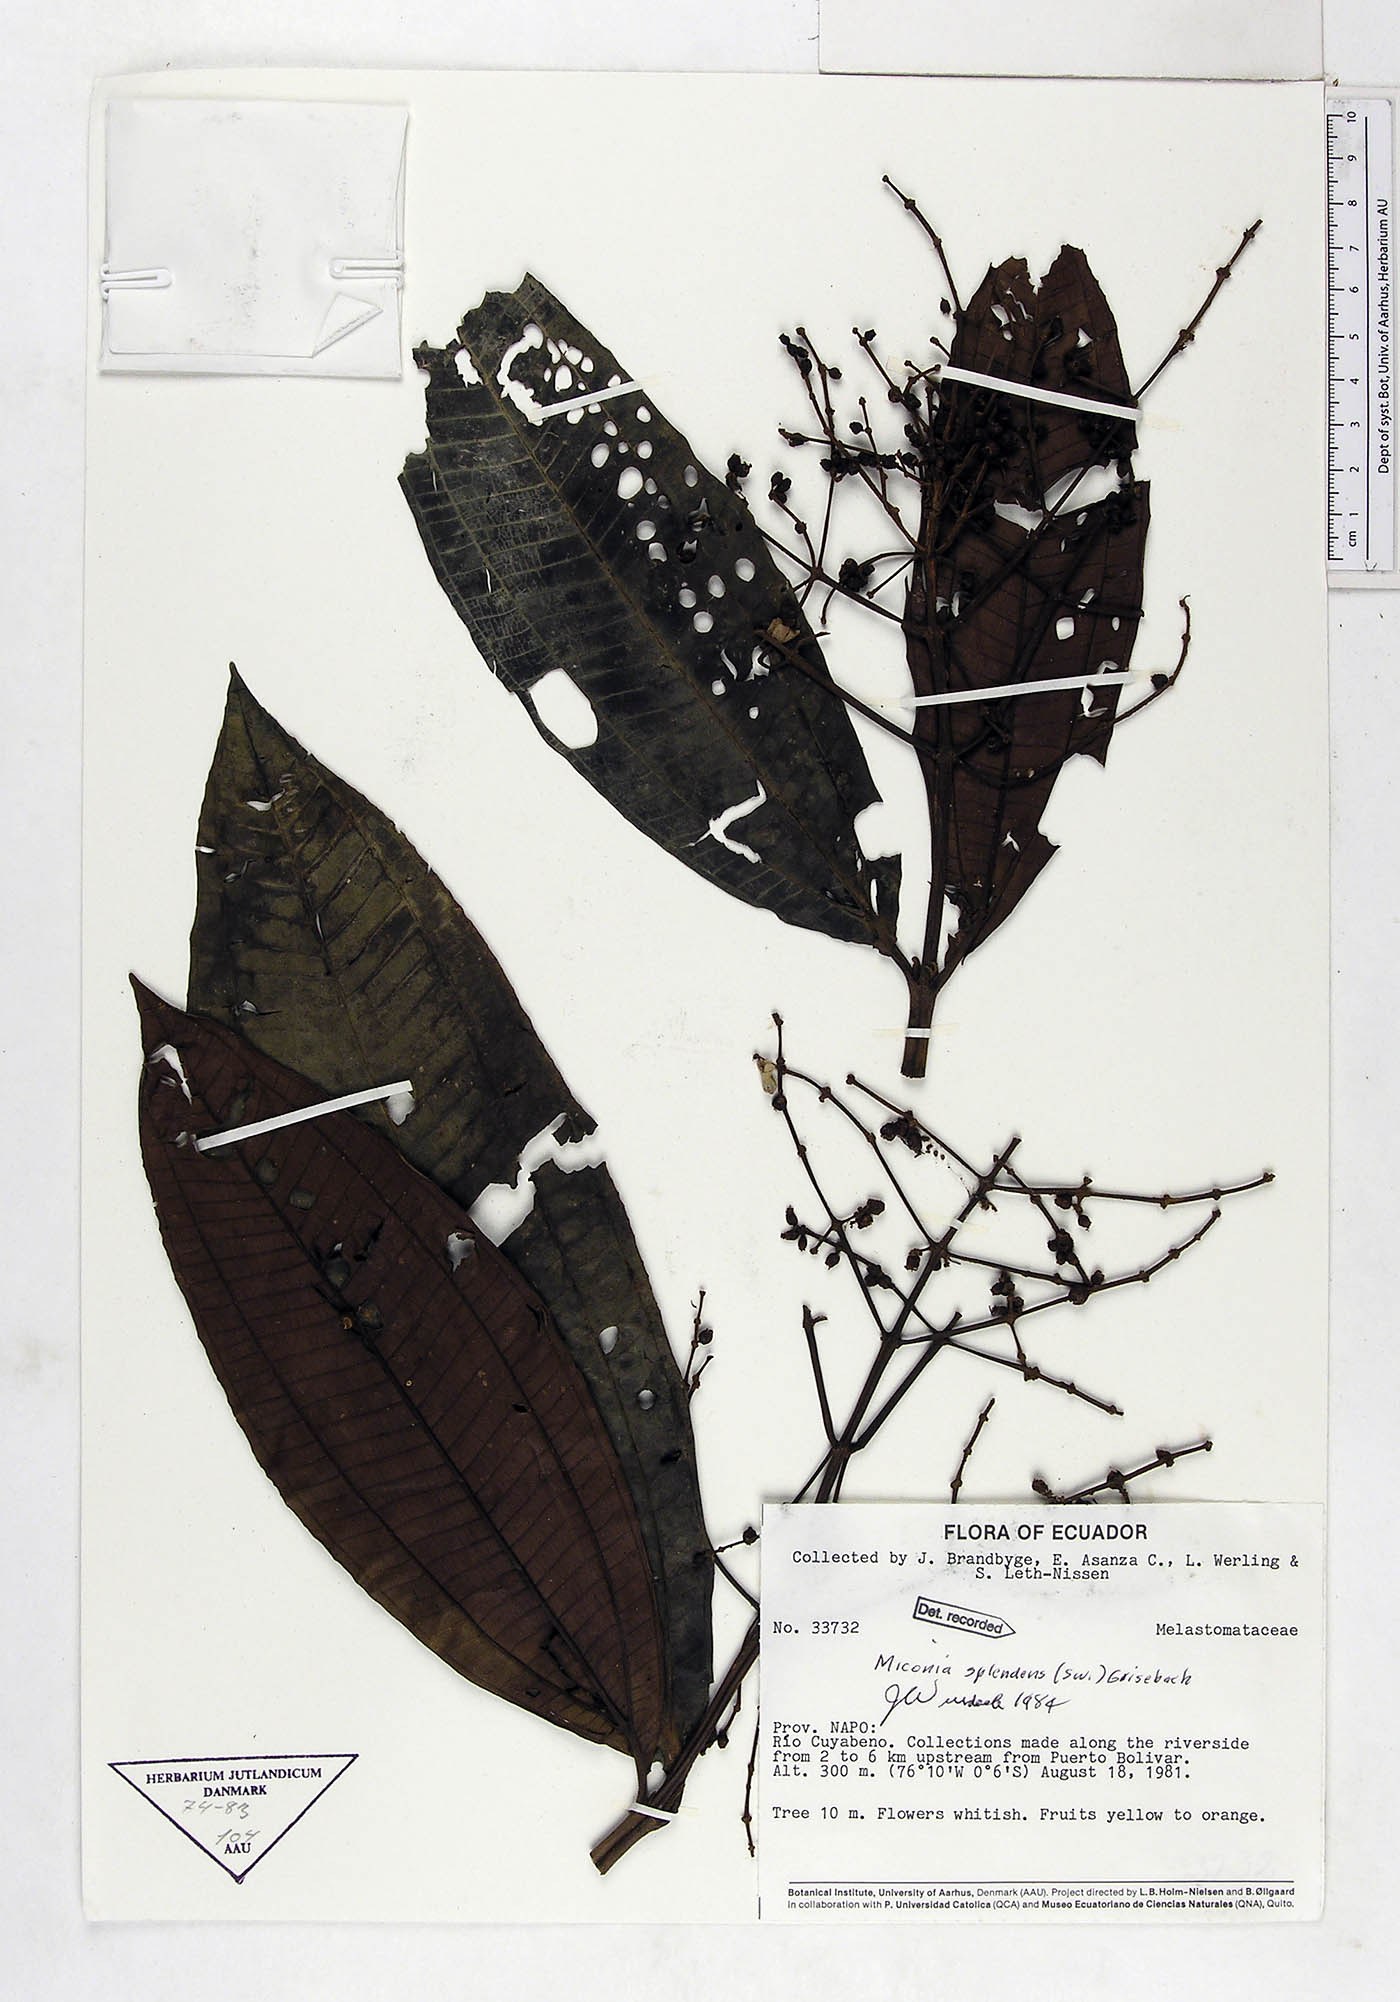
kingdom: Plantae
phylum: Tracheophyta
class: Magnoliopsida
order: Myrtales
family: Melastomataceae
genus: Miconia
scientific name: Miconia splendens
